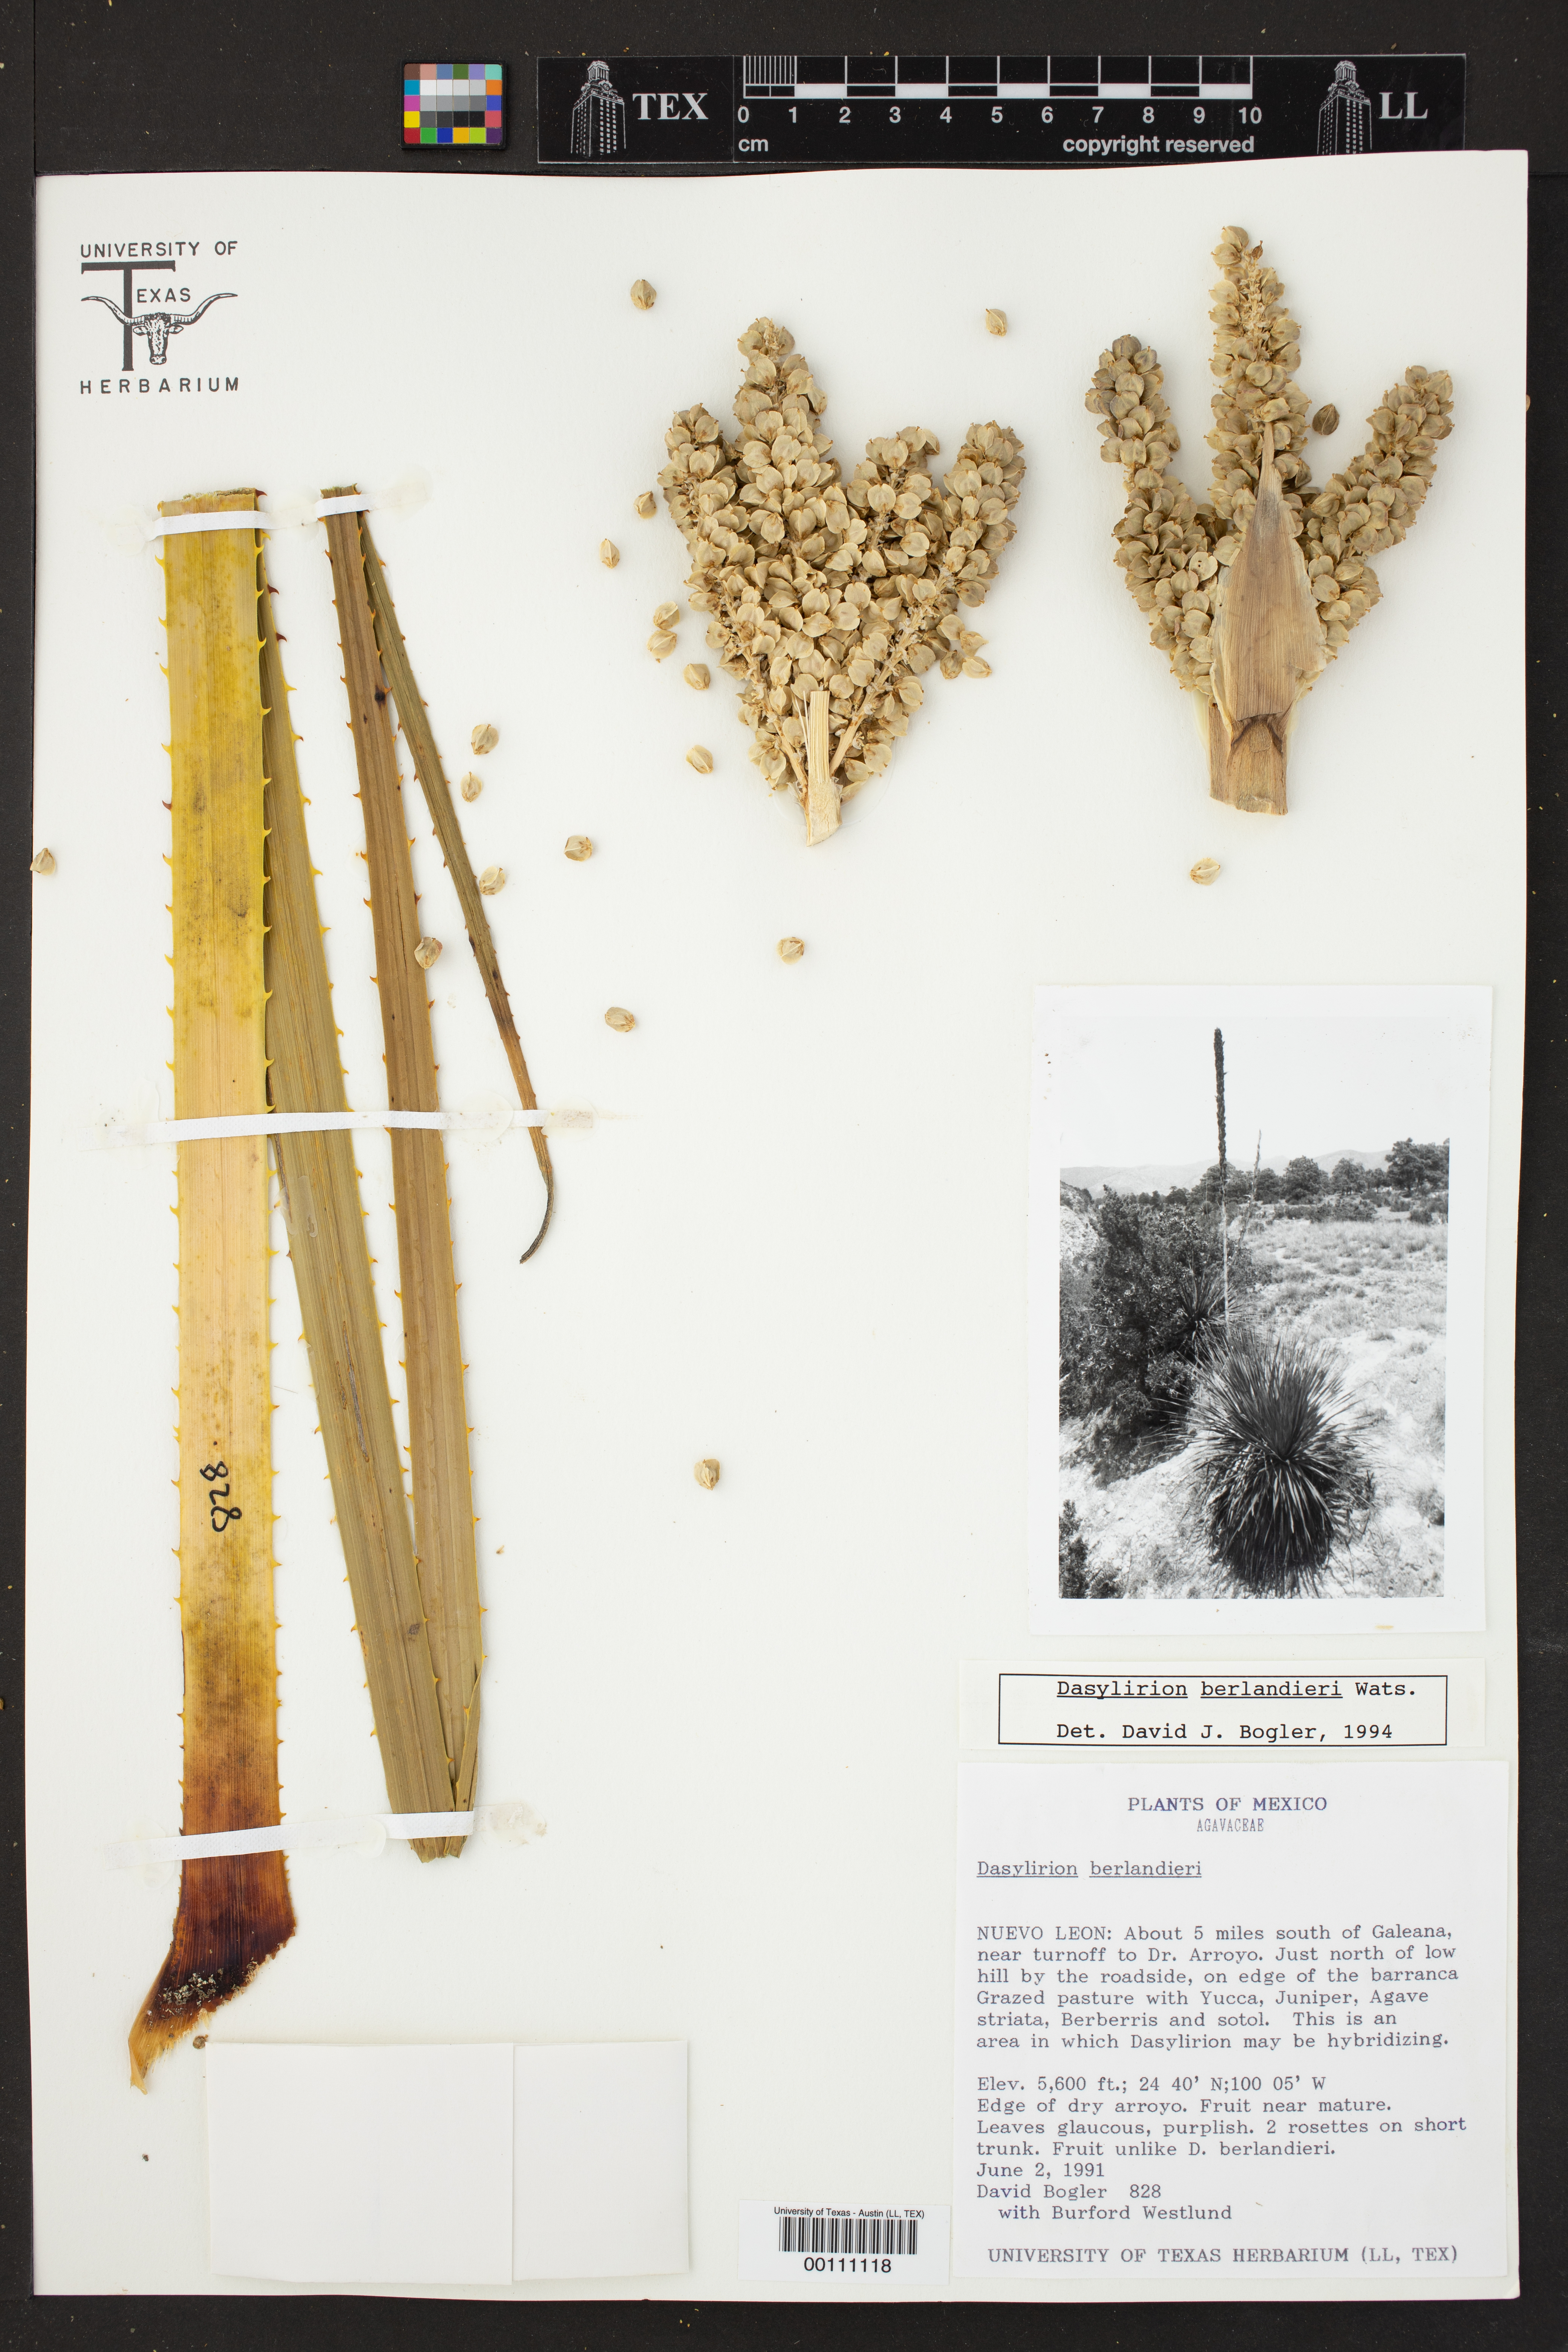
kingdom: Plantae
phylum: Tracheophyta
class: Liliopsida
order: Asparagales
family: Asparagaceae
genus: Dasylirion
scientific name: Dasylirion berlandieri
